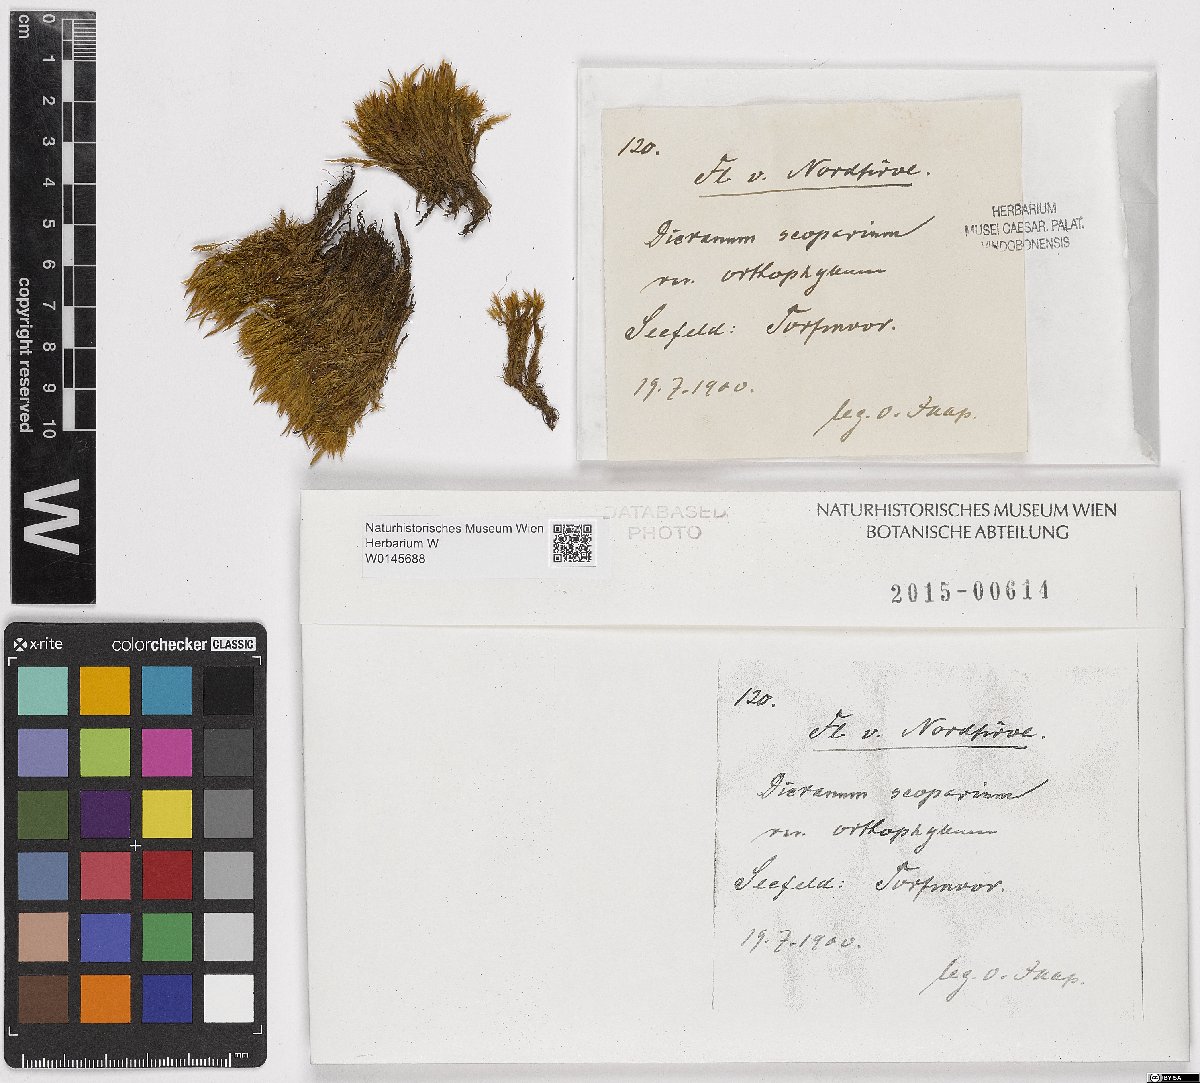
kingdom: Plantae
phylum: Bryophyta
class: Bryopsida
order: Dicranales
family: Dicranaceae
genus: Dicranum
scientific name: Dicranum scoparium
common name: Broom fork-moss
